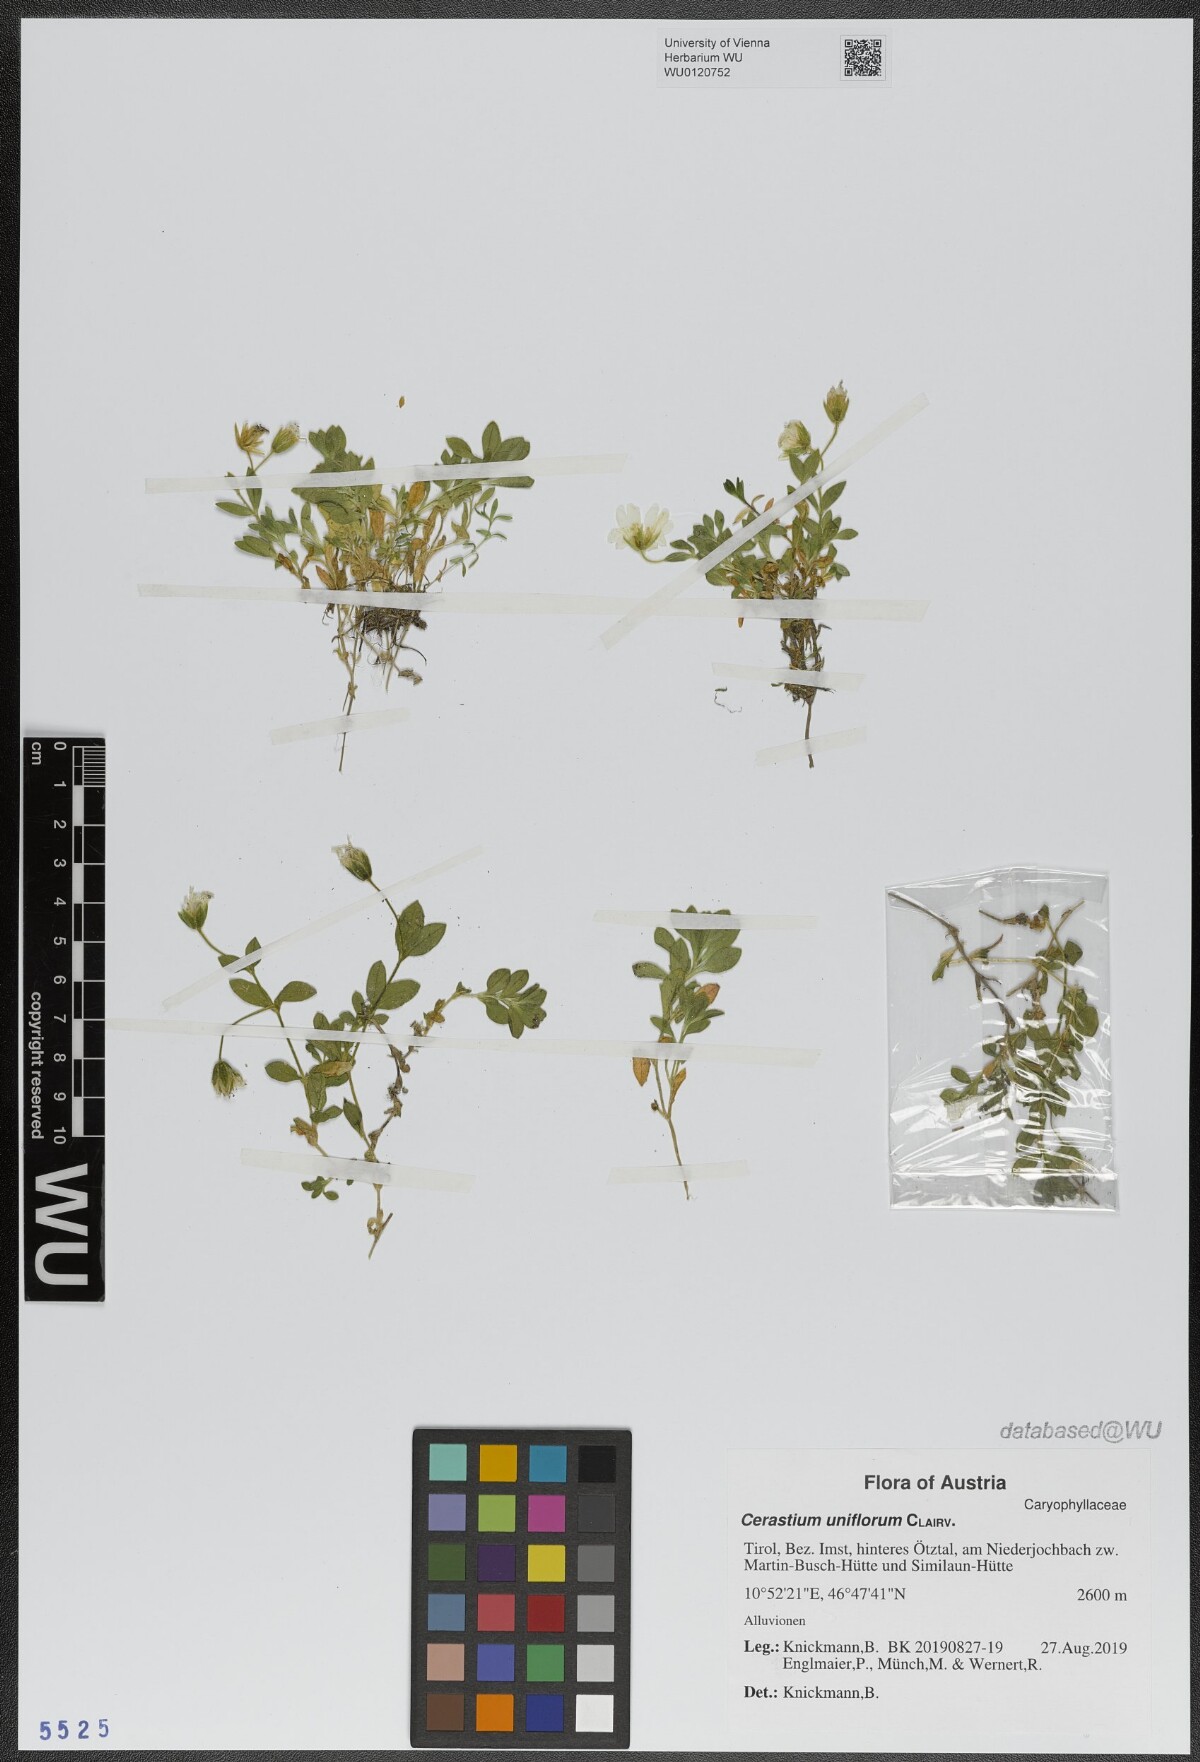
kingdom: Plantae
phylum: Tracheophyta
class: Magnoliopsida
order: Caryophyllales
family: Caryophyllaceae
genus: Cerastium
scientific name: Cerastium uniflorum
